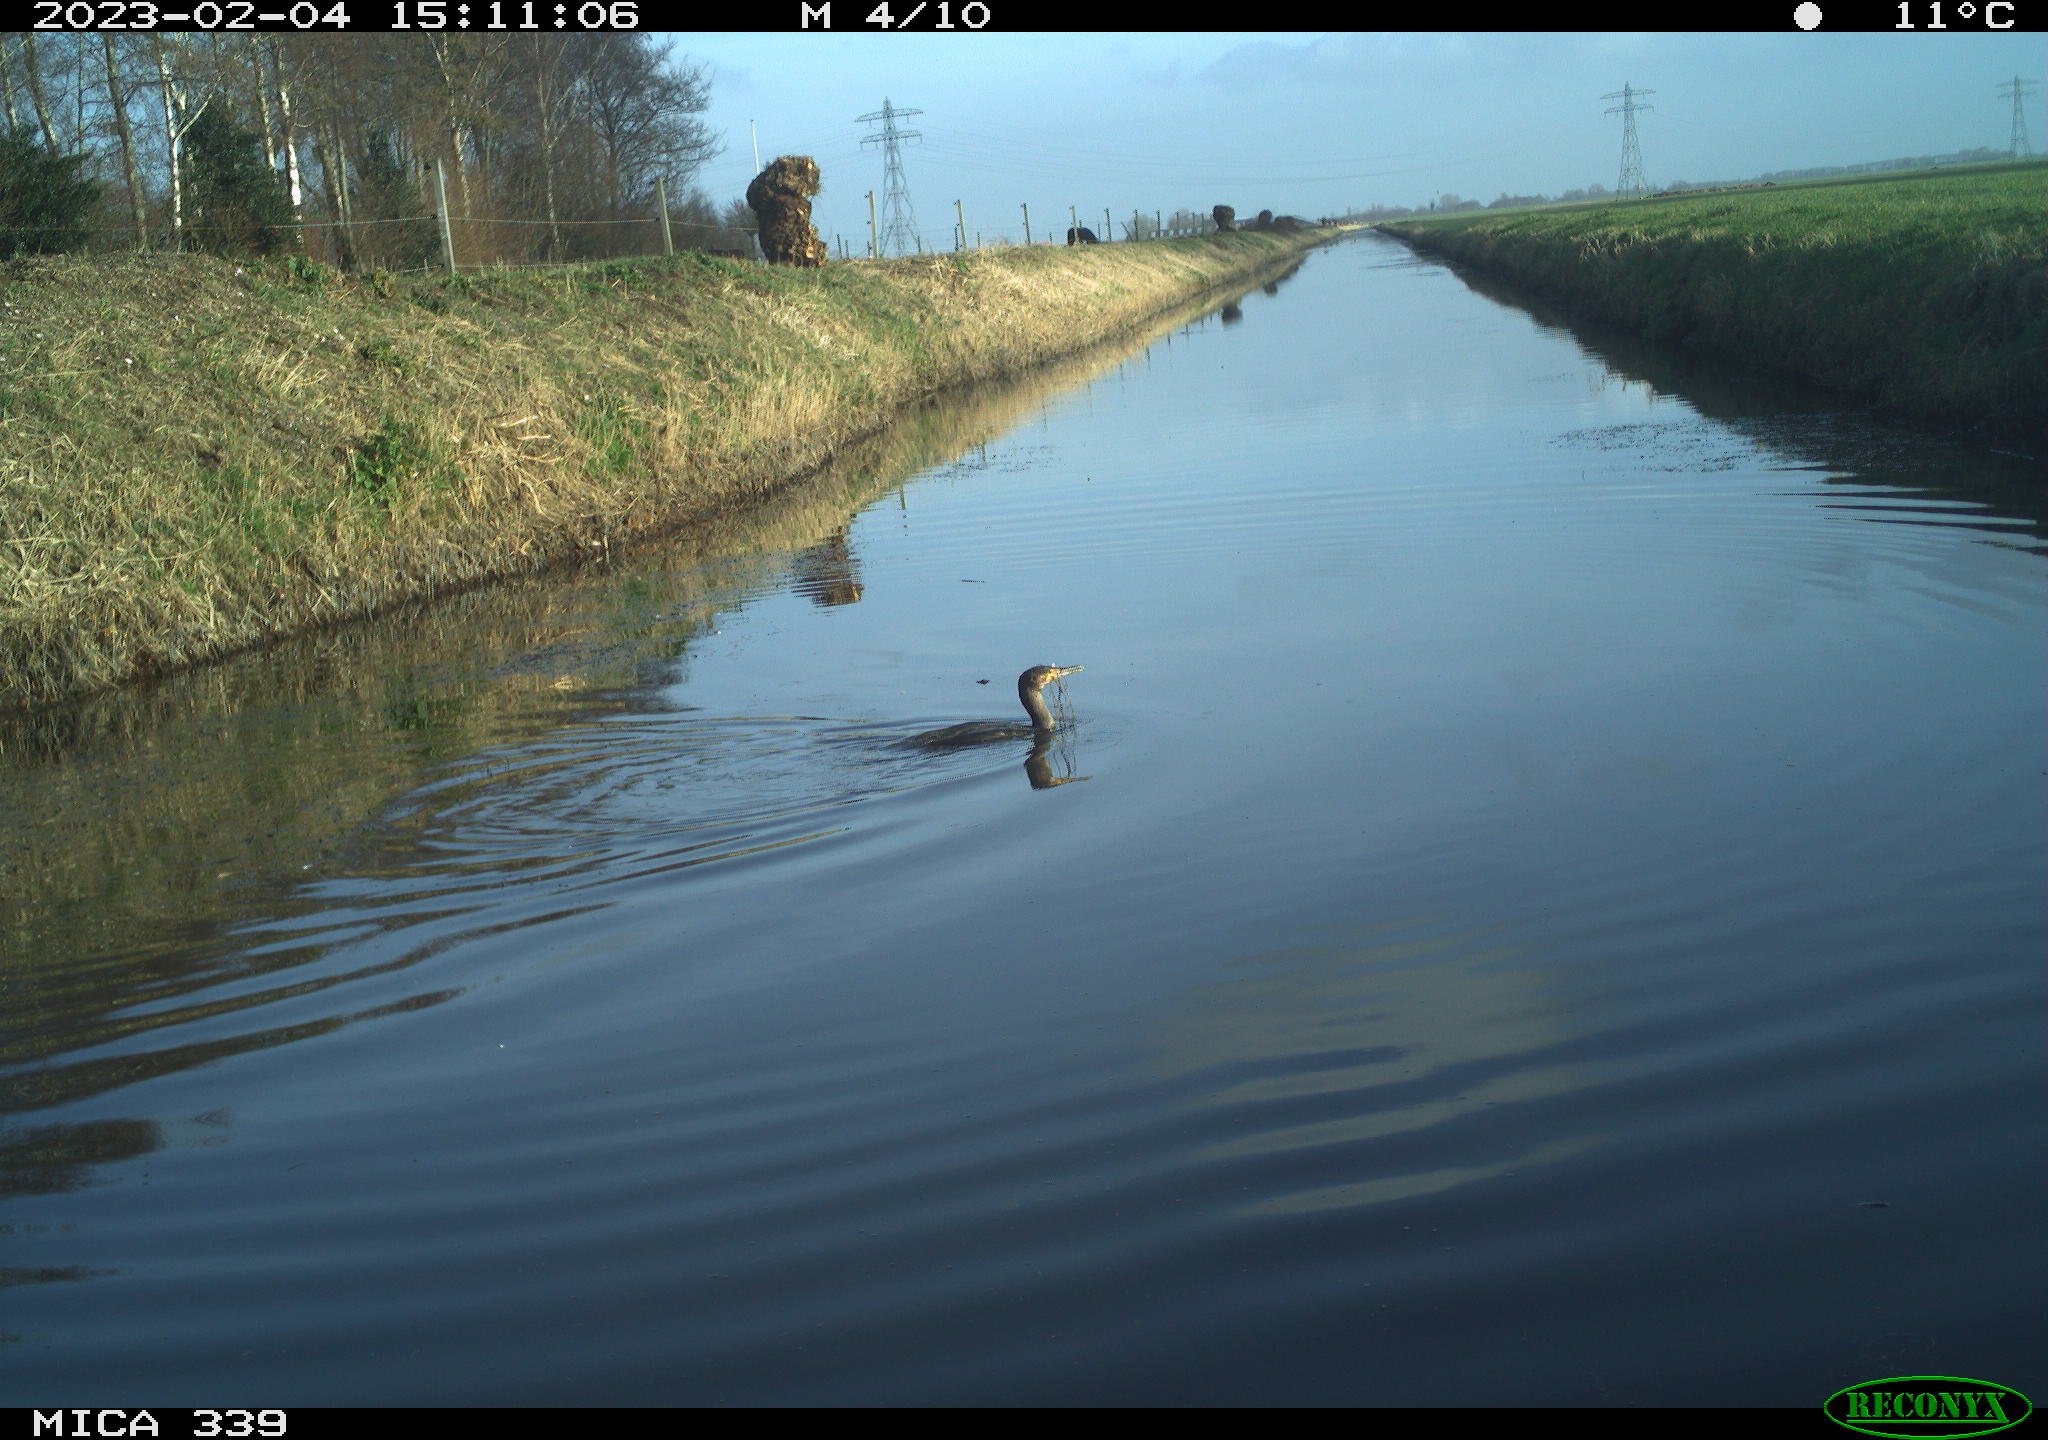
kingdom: Animalia
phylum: Chordata
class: Aves
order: Suliformes
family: Phalacrocoracidae
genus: Phalacrocorax
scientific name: Phalacrocorax carbo
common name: Great cormorant
